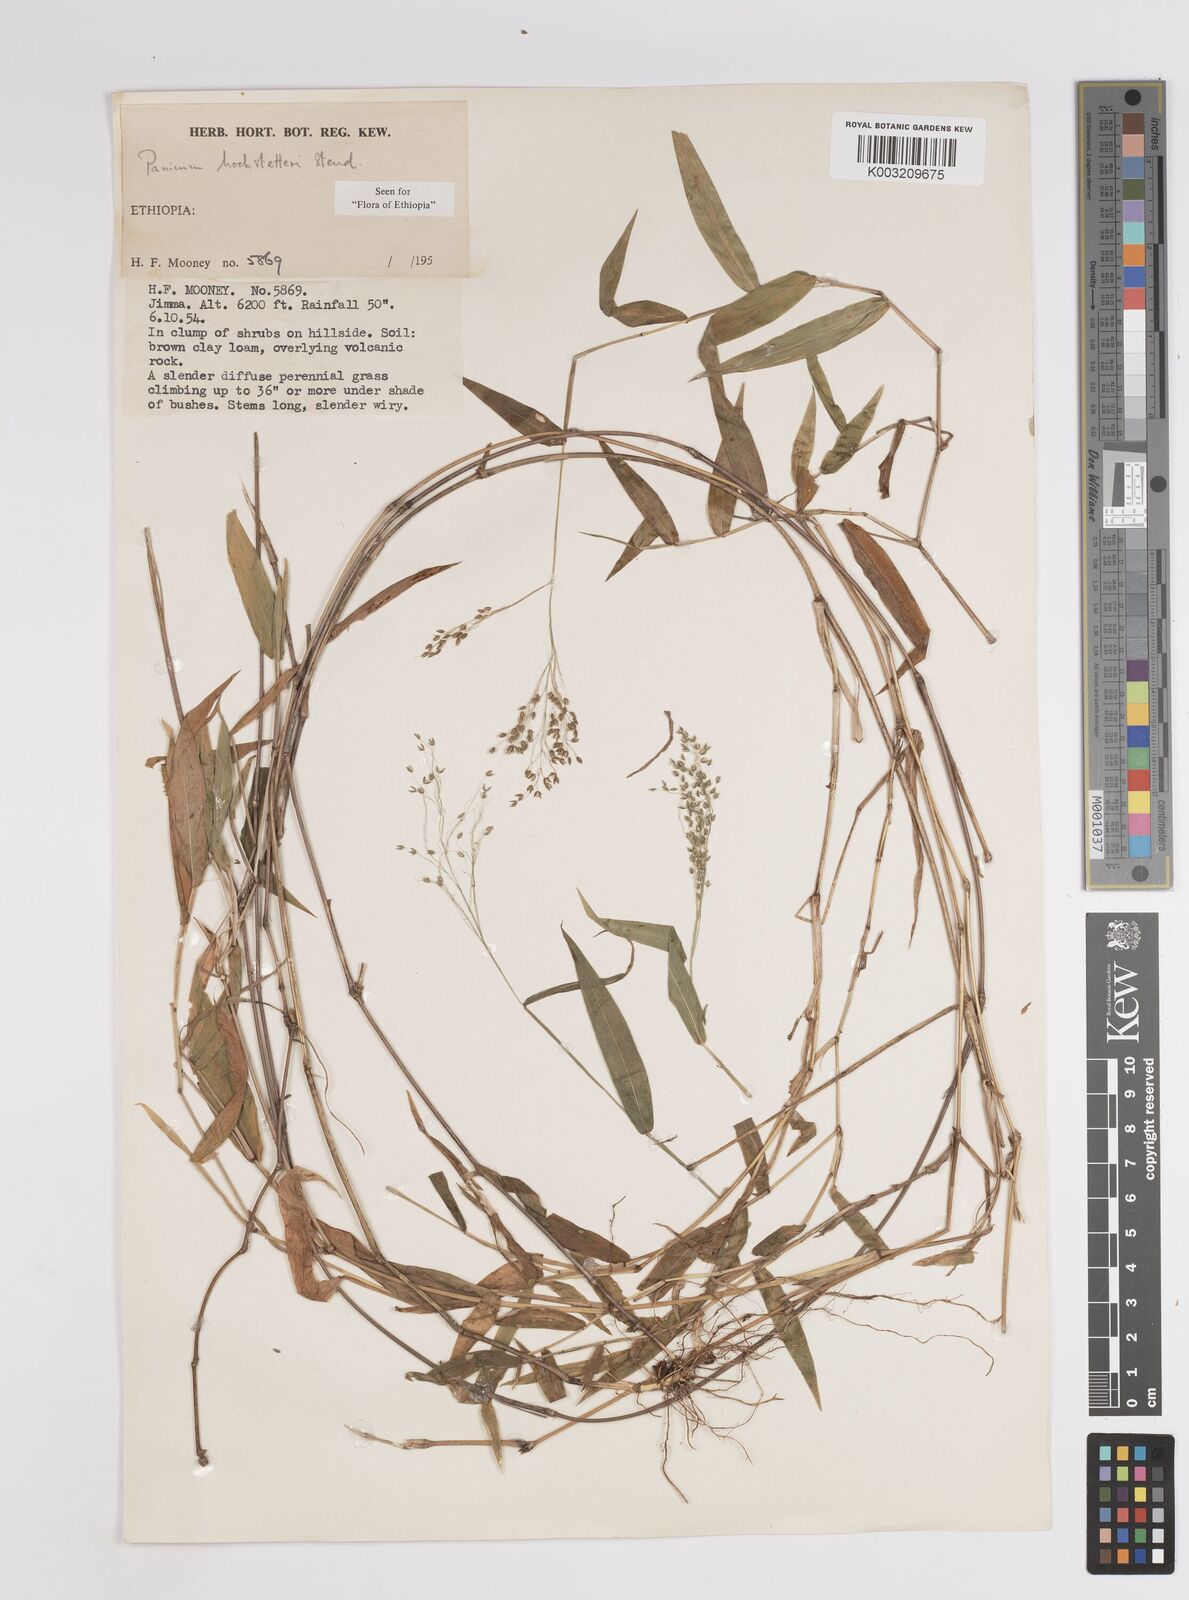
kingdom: Plantae
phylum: Tracheophyta
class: Liliopsida
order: Poales
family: Poaceae
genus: Panicum
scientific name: Panicum hochstetteri
